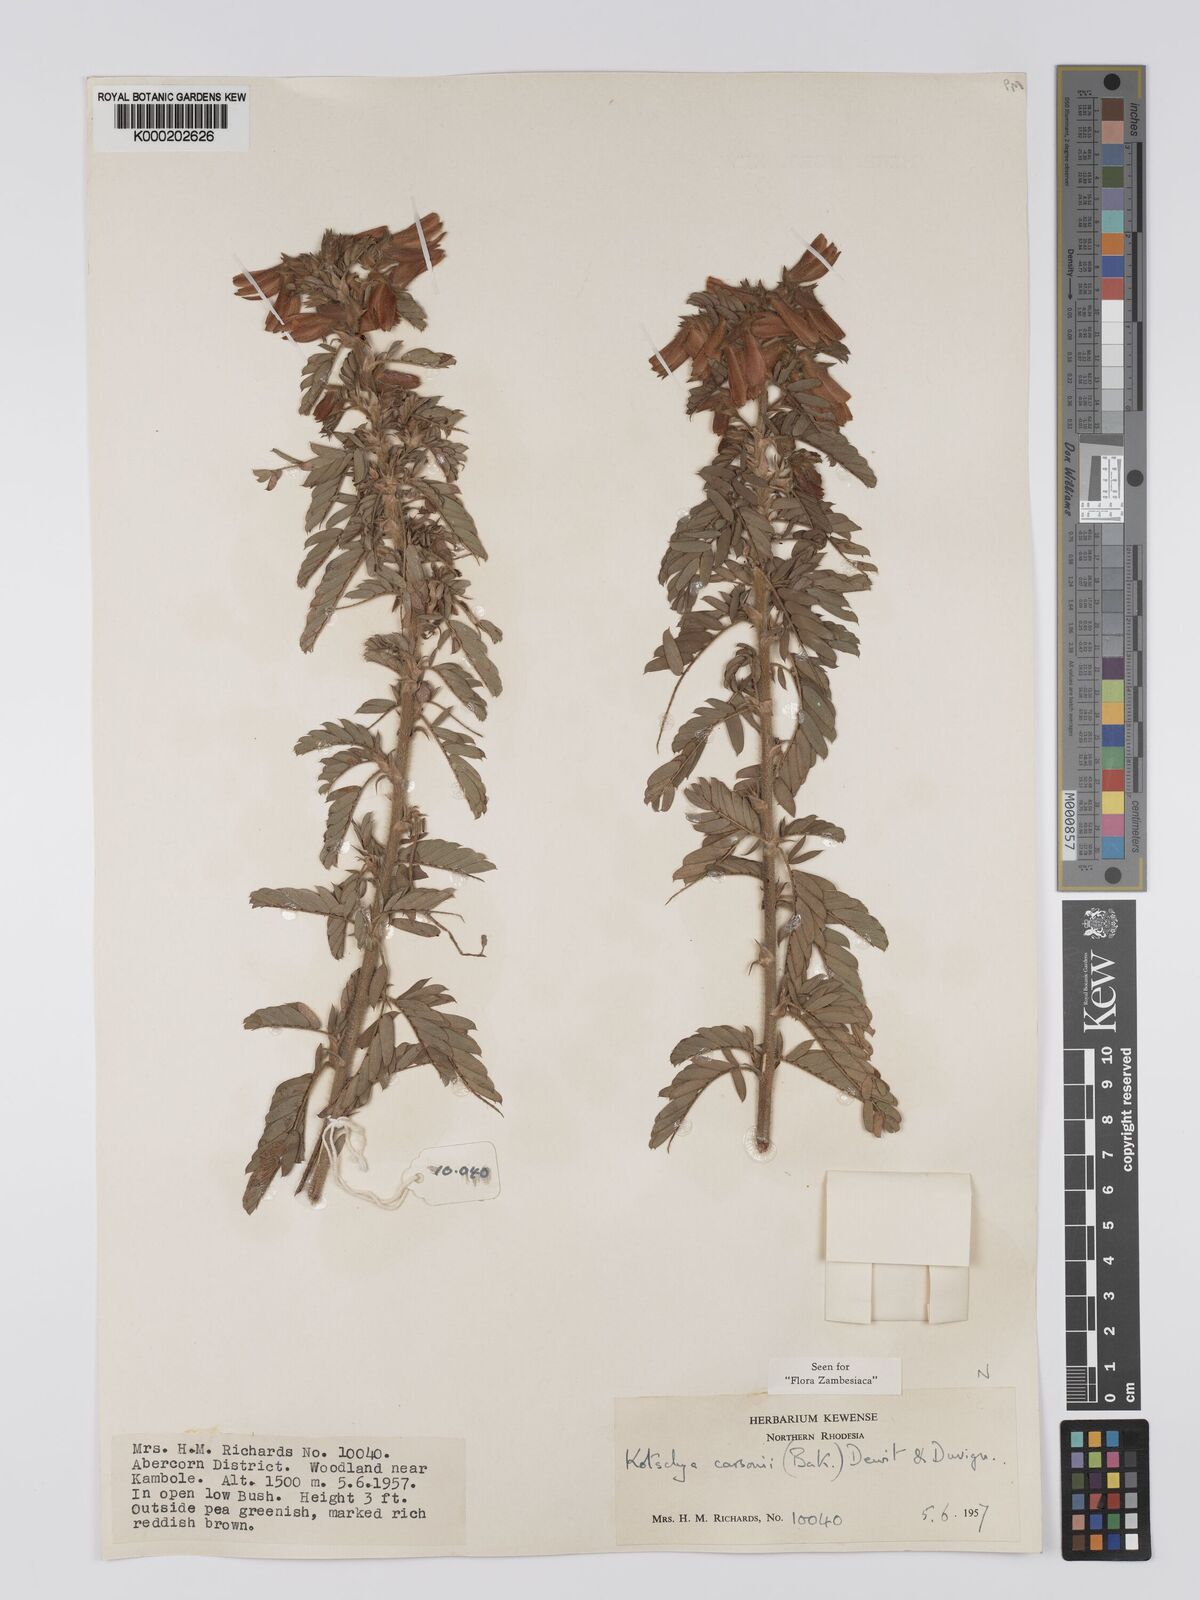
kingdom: Plantae
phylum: Tracheophyta
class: Magnoliopsida
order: Fabales
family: Fabaceae
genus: Kotschya
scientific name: Kotschya carsonii
